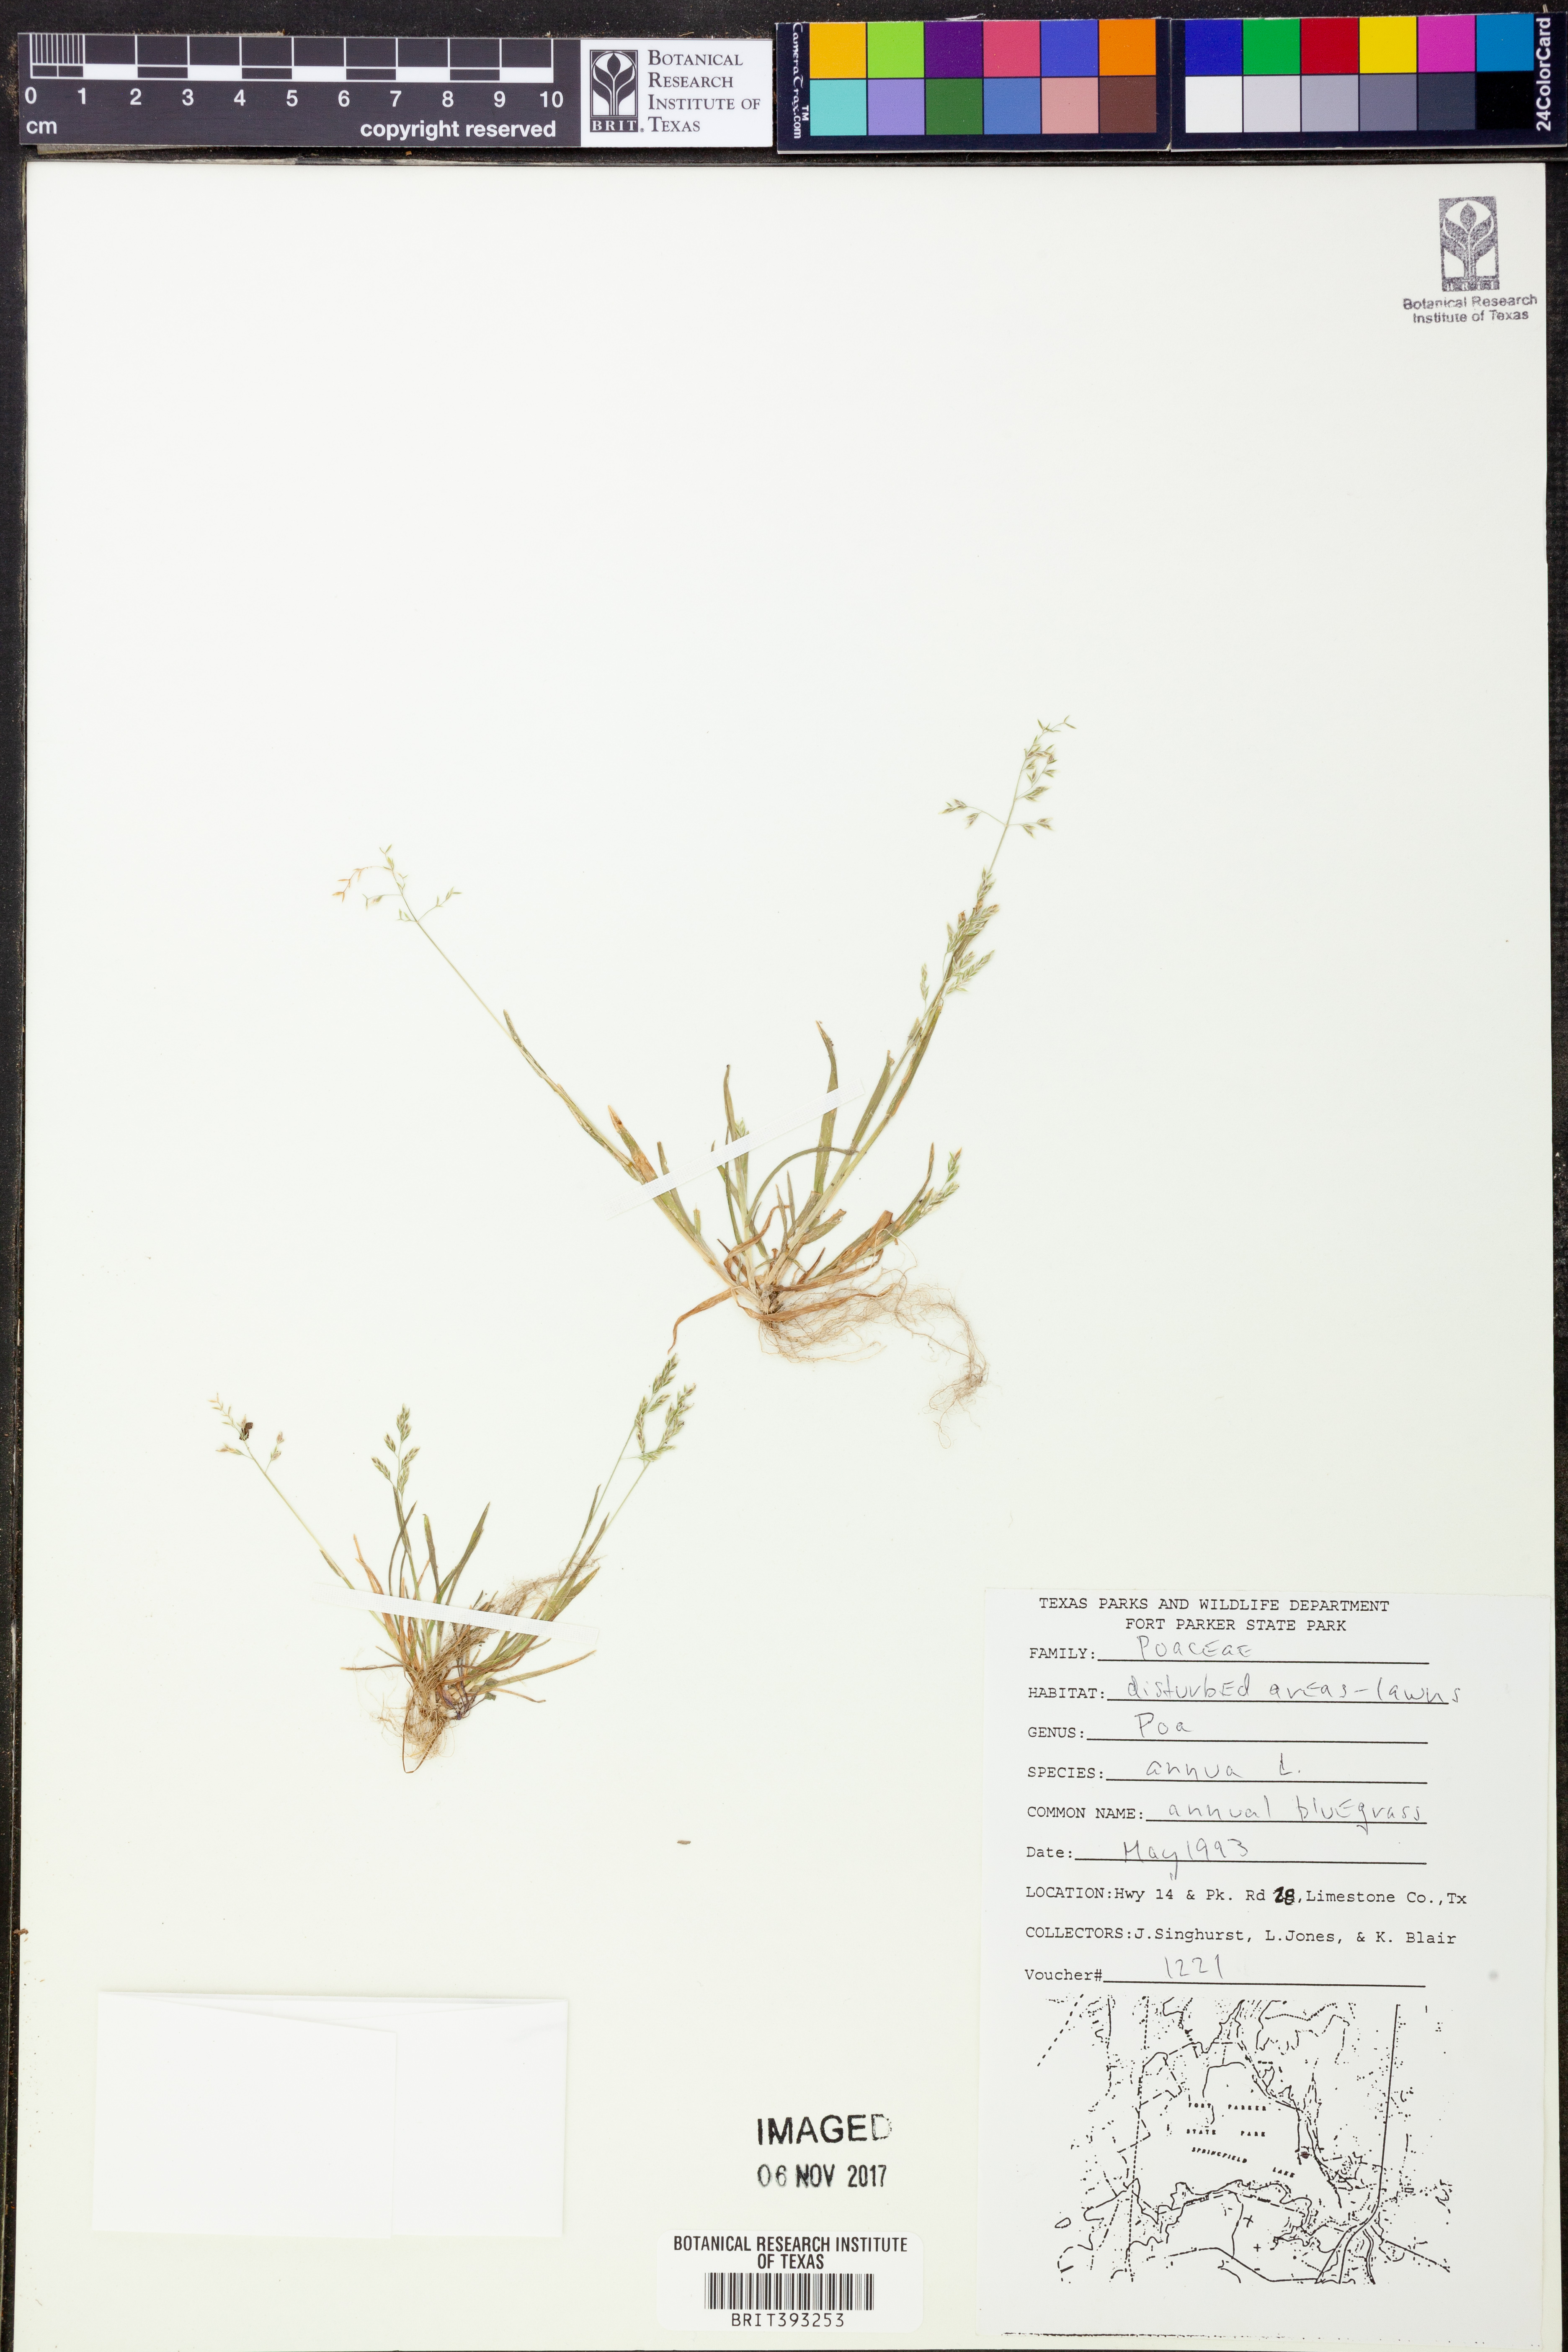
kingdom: Plantae
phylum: Tracheophyta
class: Liliopsida
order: Poales
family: Poaceae
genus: Poa
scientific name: Poa annua
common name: Annual bluegrass
